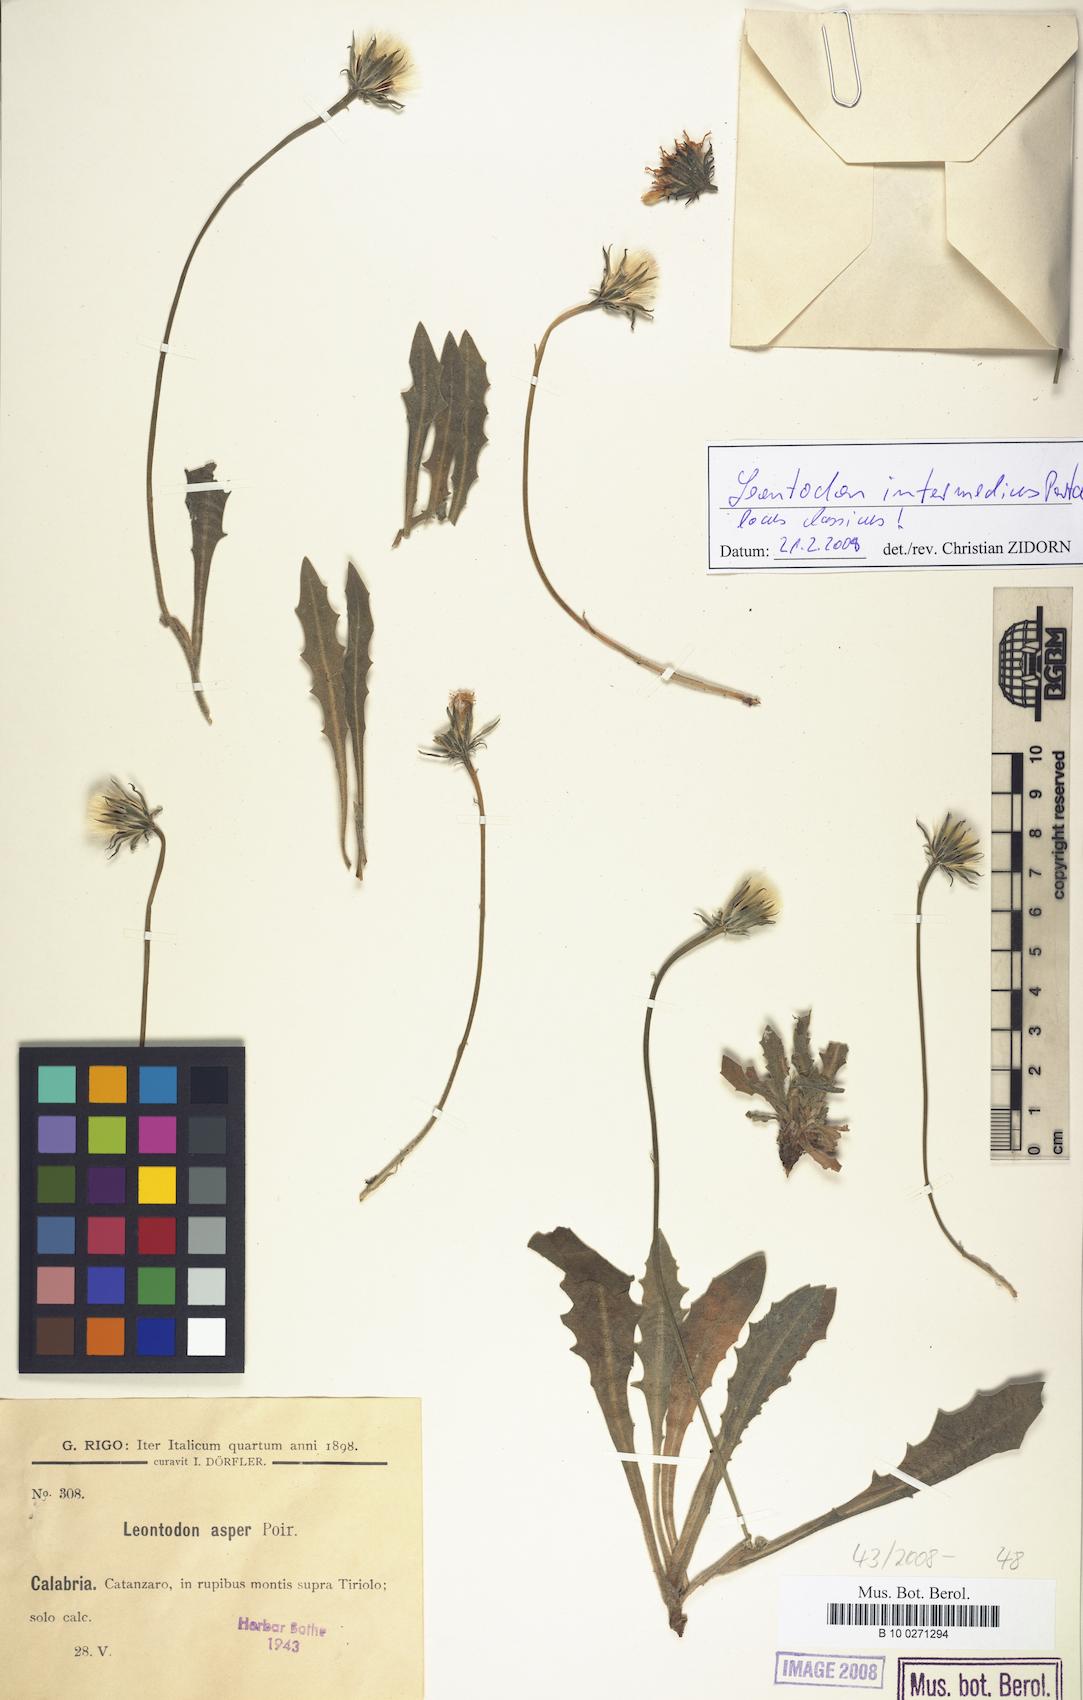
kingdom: Plantae
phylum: Tracheophyta
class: Magnoliopsida
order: Asterales
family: Asteraceae
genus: Leontodon
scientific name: Leontodon intermedius
